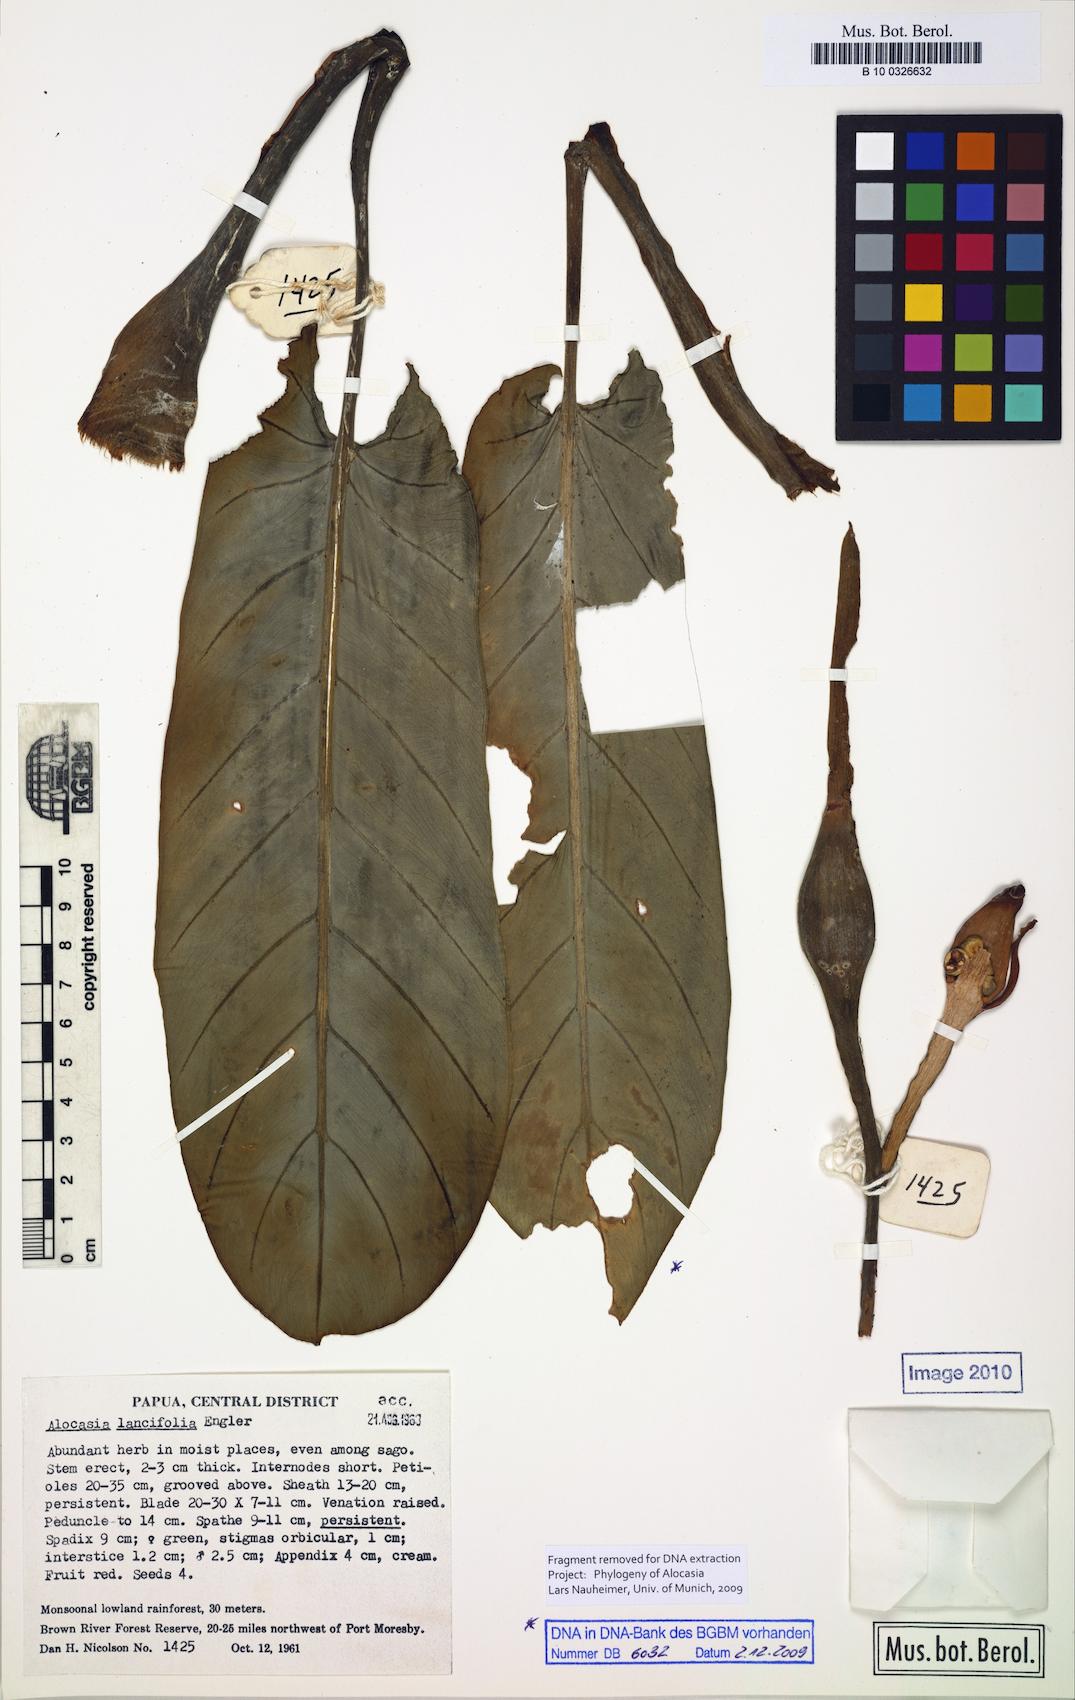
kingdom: Plantae
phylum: Tracheophyta
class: Liliopsida
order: Alismatales
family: Araceae
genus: Alocasia
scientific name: Alocasia lancifolia
